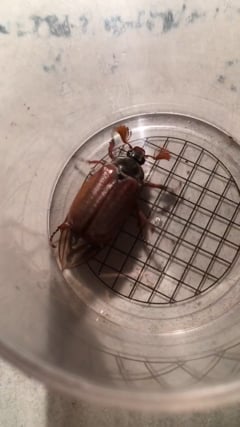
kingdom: Animalia
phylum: Arthropoda
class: Insecta
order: Coleoptera
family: Scarabaeidae
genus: Melolontha
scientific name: Melolontha melolontha
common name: Cockchafer maybeetle
